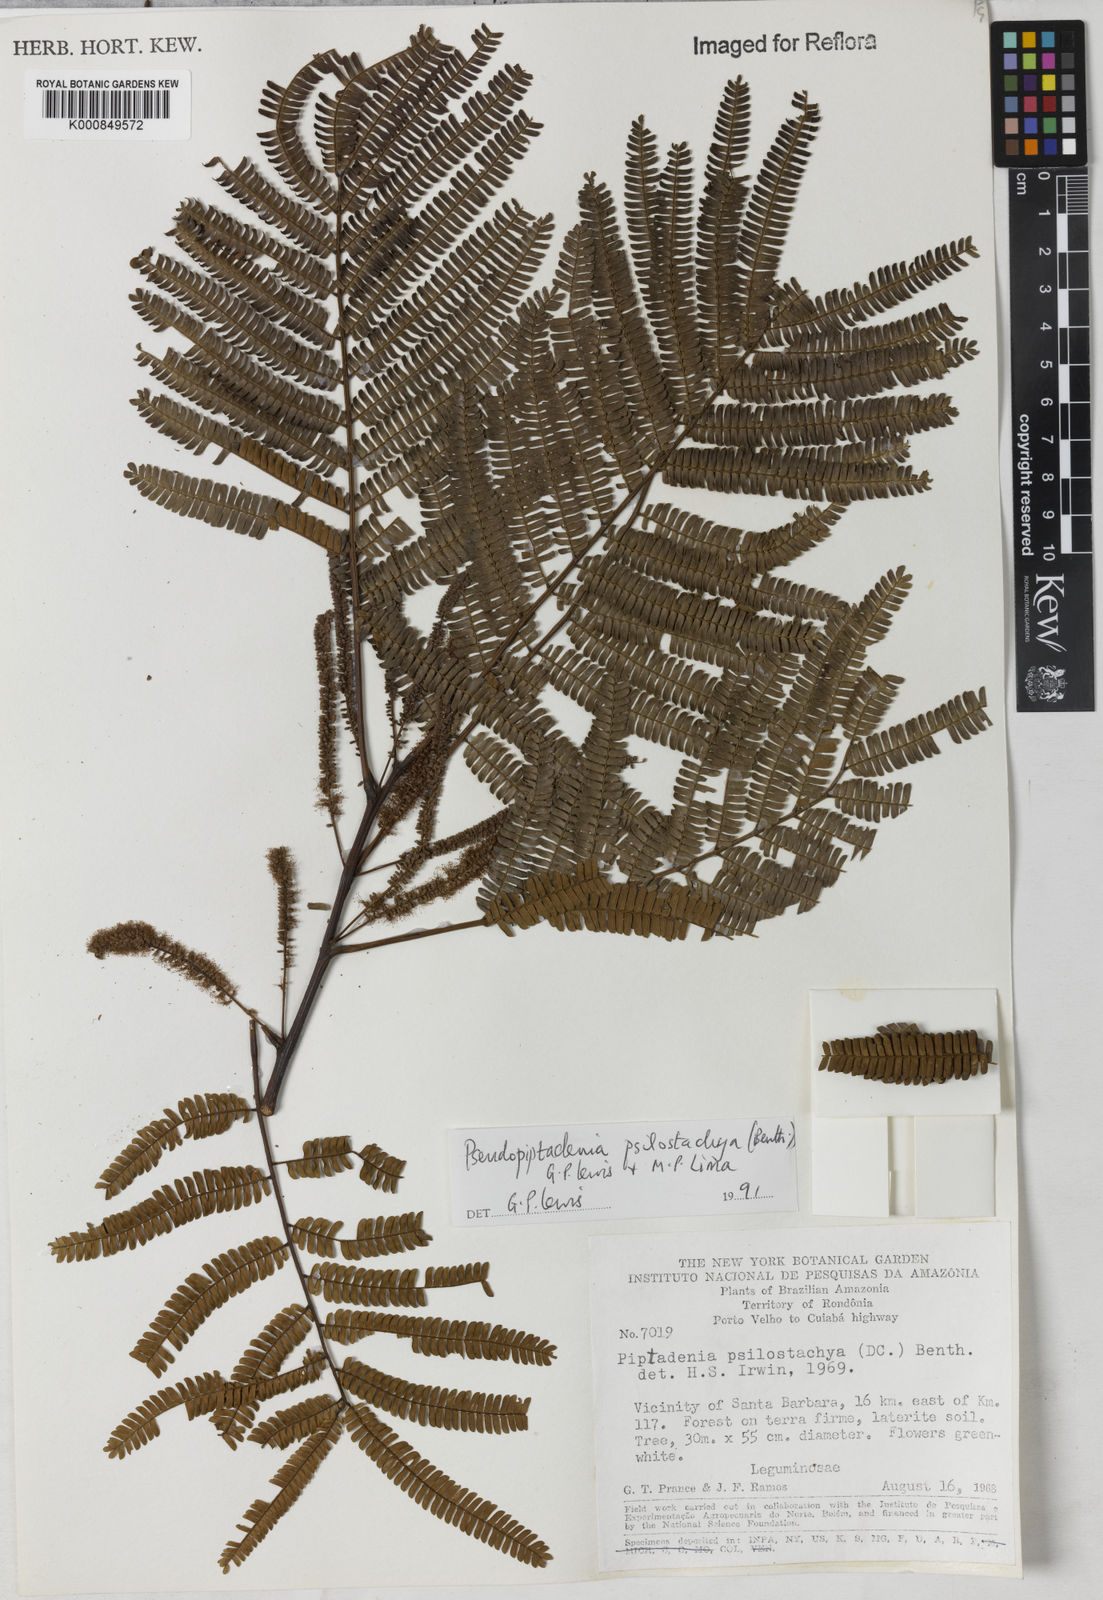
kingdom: Plantae
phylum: Tracheophyta
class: Magnoliopsida
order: Fabales
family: Fabaceae
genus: Pseudopiptadenia
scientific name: Pseudopiptadenia psilostachya
